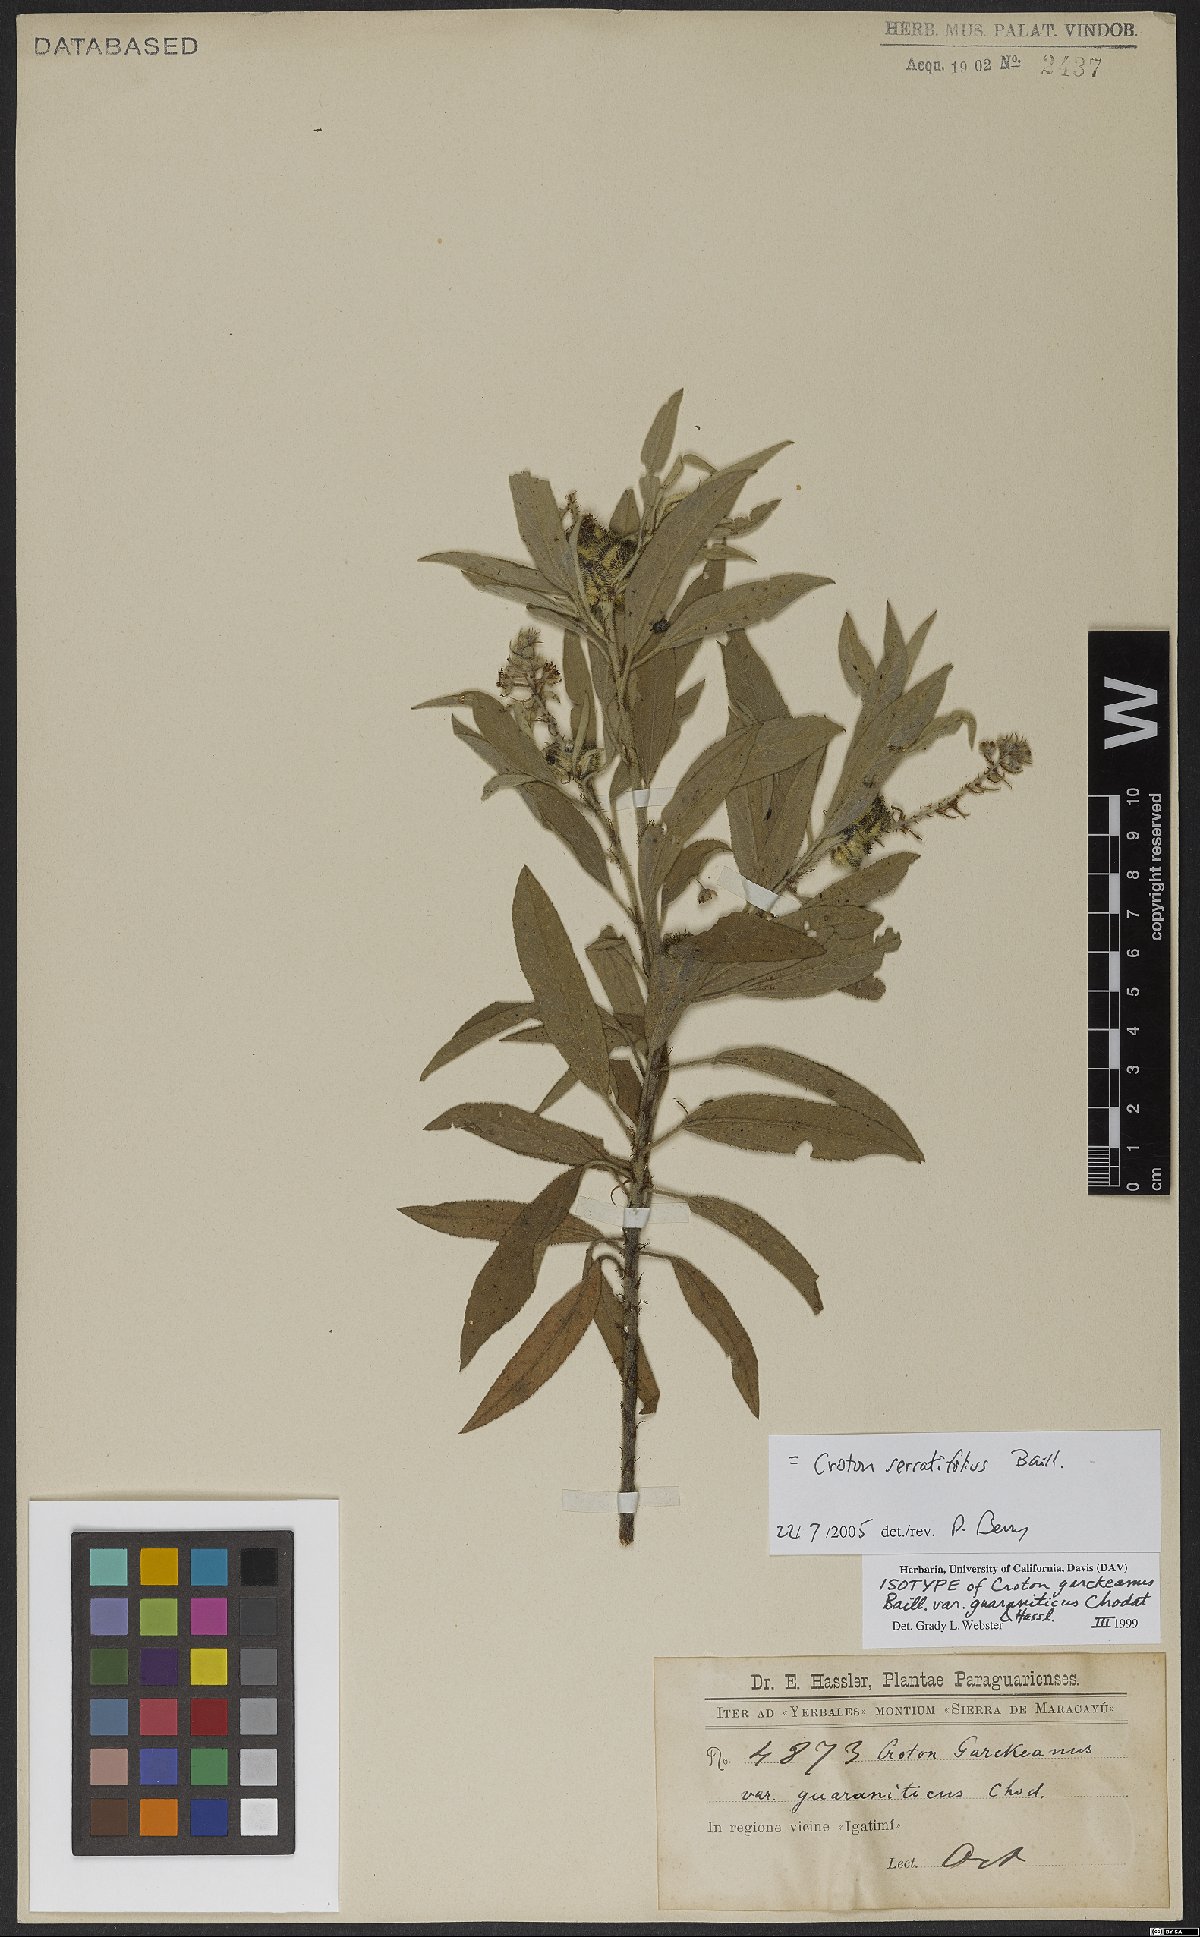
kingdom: Plantae
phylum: Tracheophyta
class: Magnoliopsida
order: Malpighiales
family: Euphorbiaceae
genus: Croton
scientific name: Croton serratifolius
